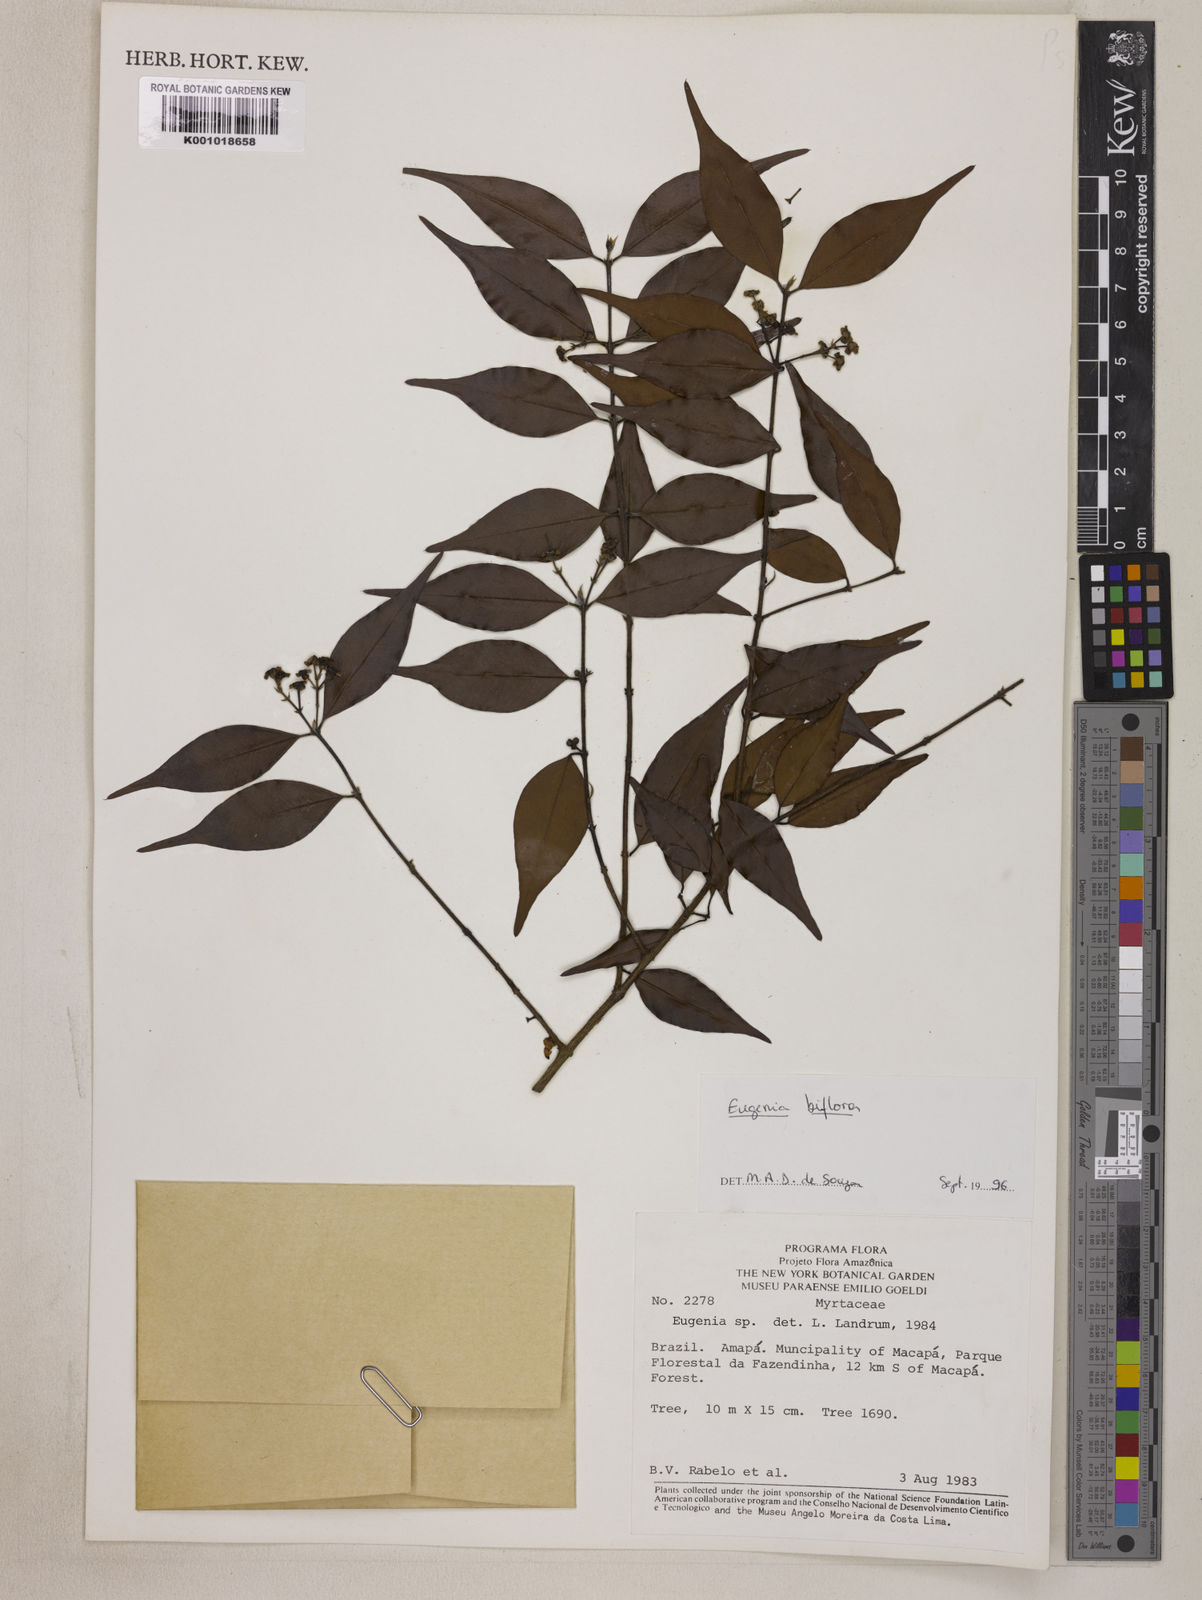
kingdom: Plantae
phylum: Tracheophyta
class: Magnoliopsida
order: Myrtales
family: Myrtaceae
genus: Eugenia
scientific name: Eugenia biflora
